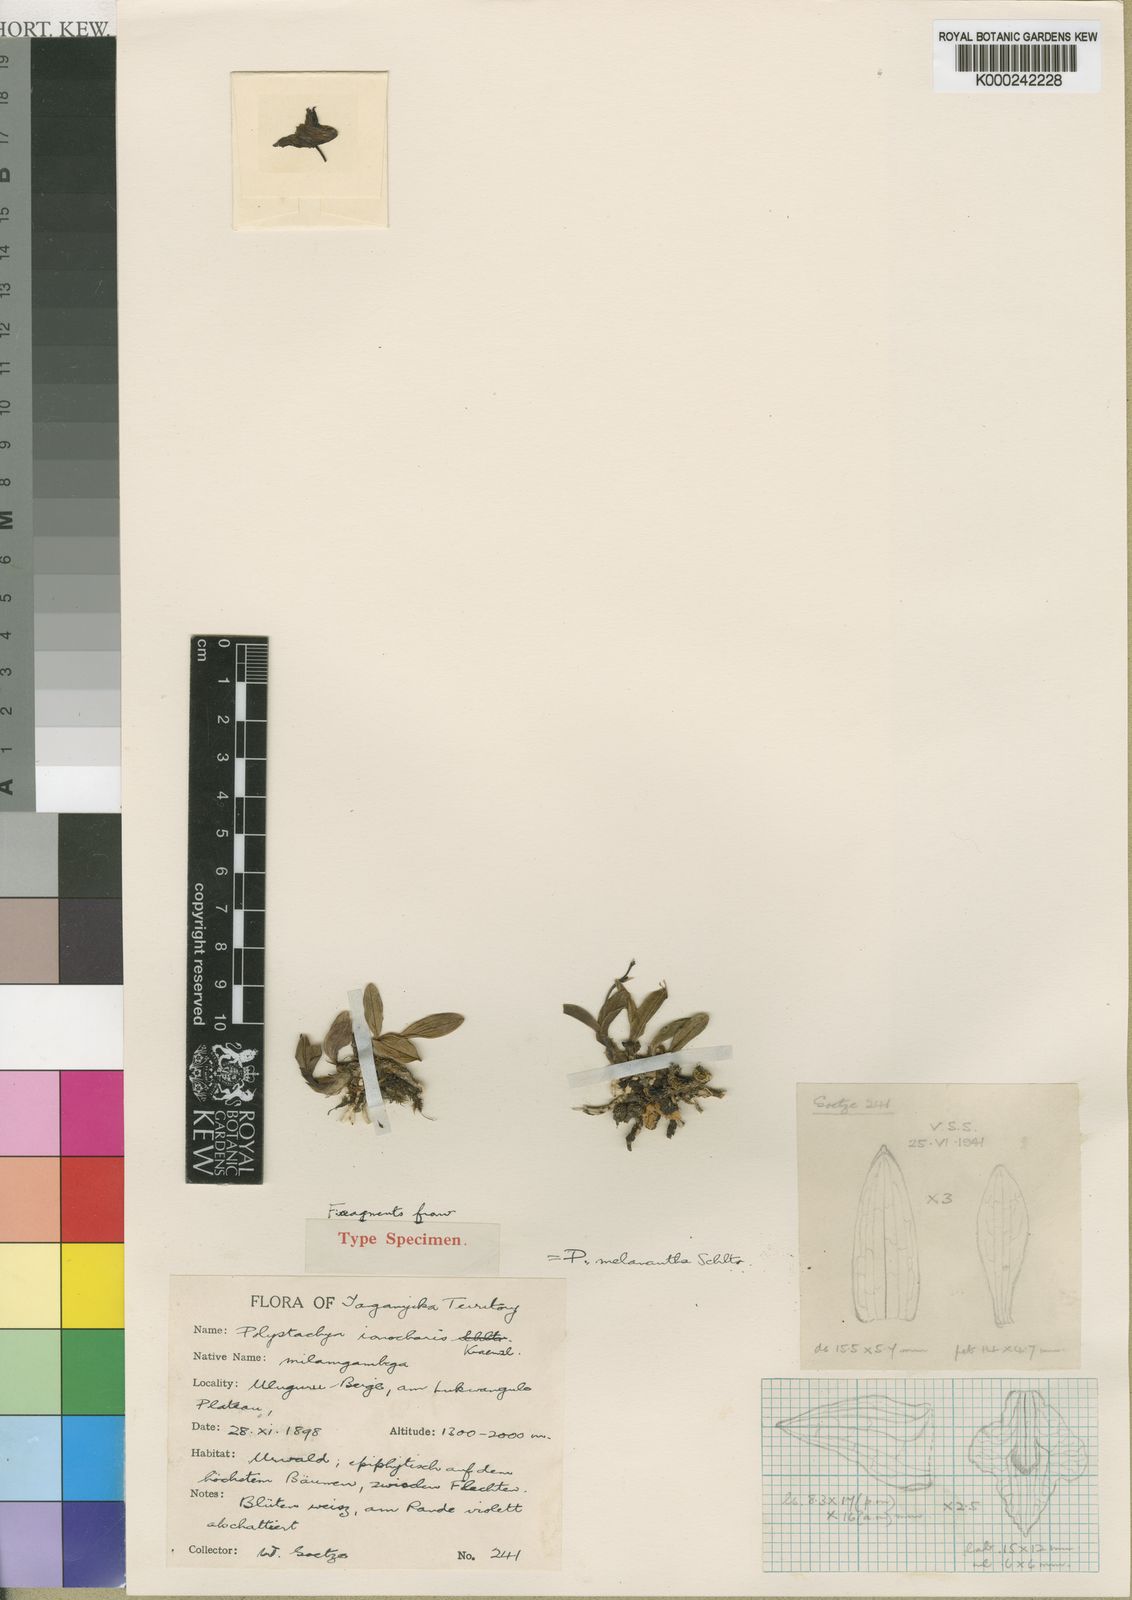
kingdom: Plantae
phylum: Tracheophyta
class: Liliopsida
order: Asparagales
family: Orchidaceae
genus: Polystachya
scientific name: Polystachya melanantha
